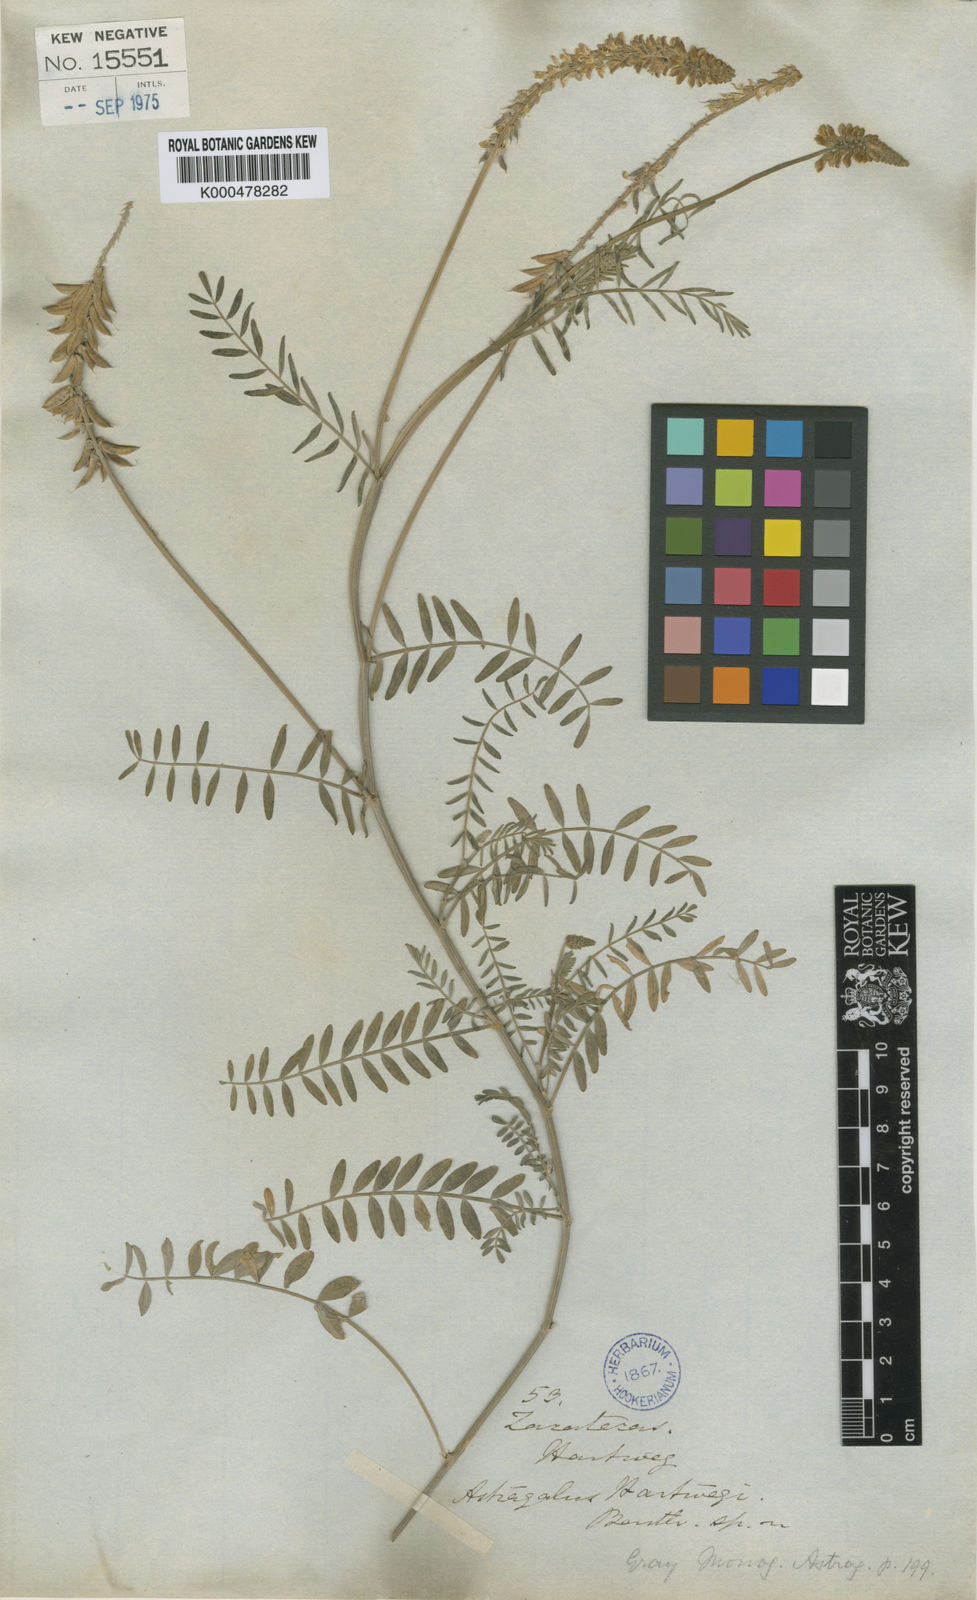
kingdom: Plantae
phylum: Tracheophyta
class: Magnoliopsida
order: Fabales
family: Fabaceae
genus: Astragalus
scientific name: Astragalus hartwegii
